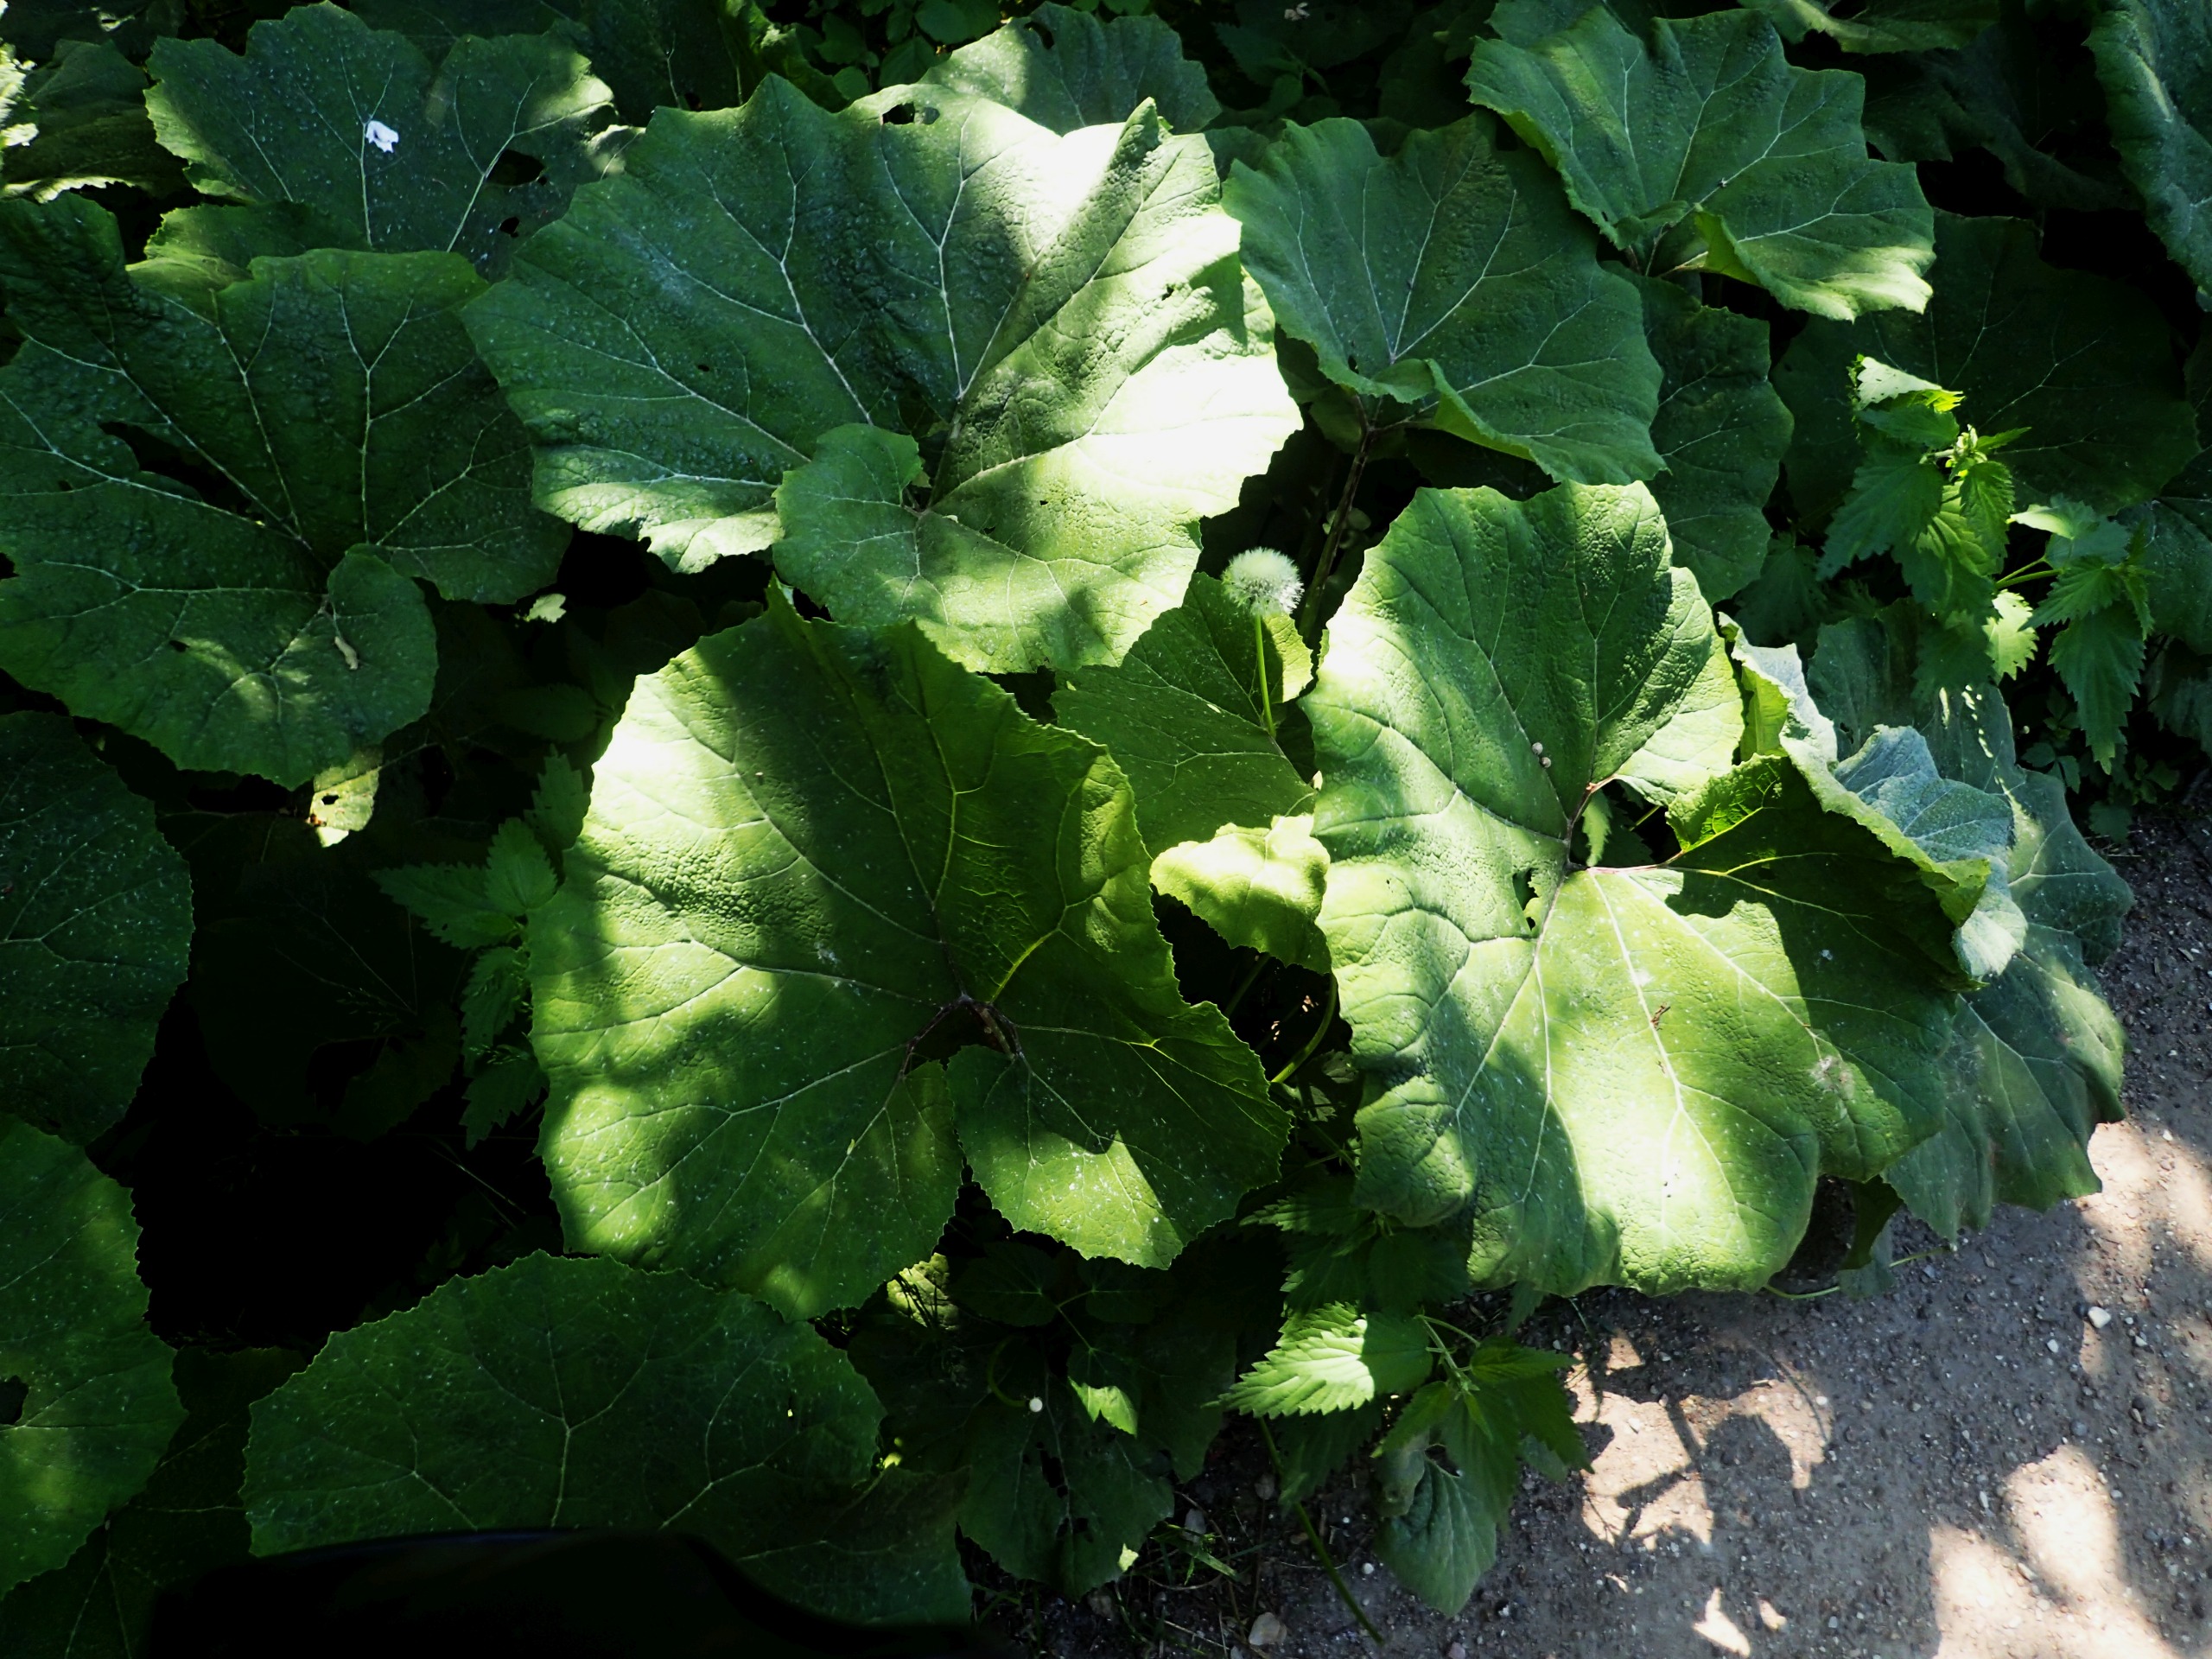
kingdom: Plantae
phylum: Tracheophyta
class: Magnoliopsida
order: Asterales
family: Asteraceae
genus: Petasites
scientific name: Petasites hybridus
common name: Rød hestehov
